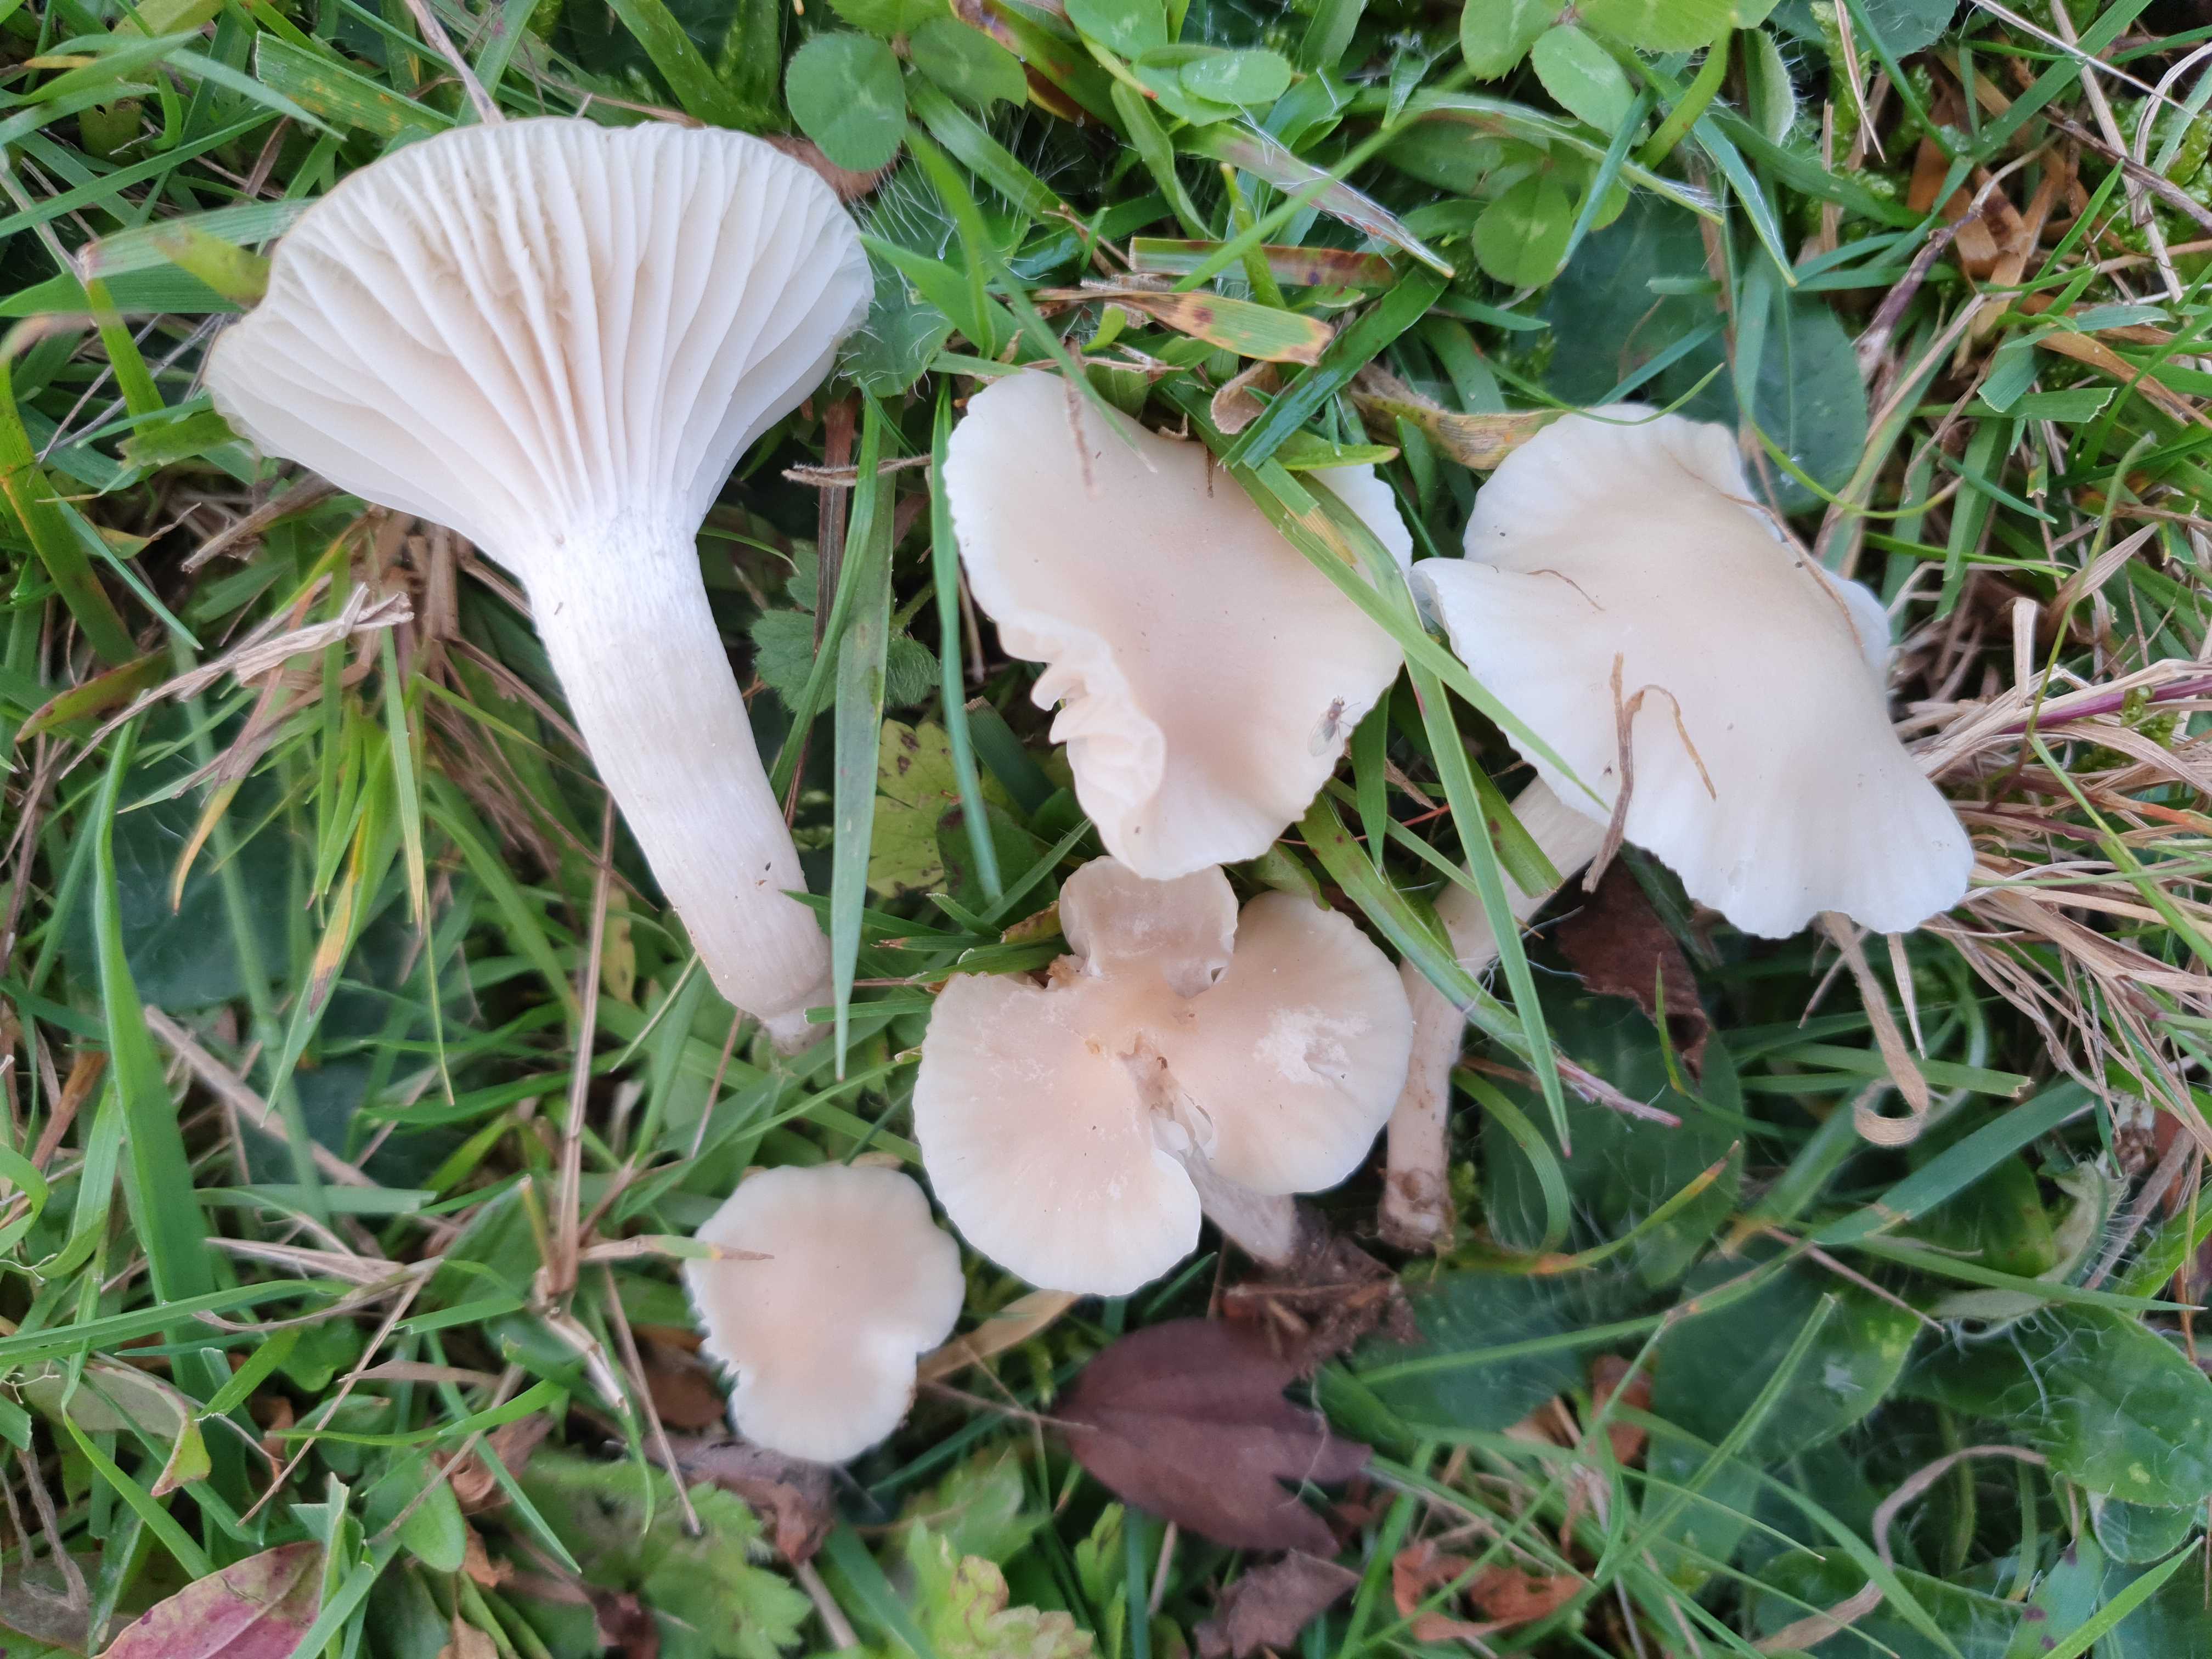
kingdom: Fungi
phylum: Basidiomycota
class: Agaricomycetes
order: Agaricales
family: Hygrophoraceae
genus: Cuphophyllus
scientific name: Cuphophyllus virgineus
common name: isabella-vokshat
